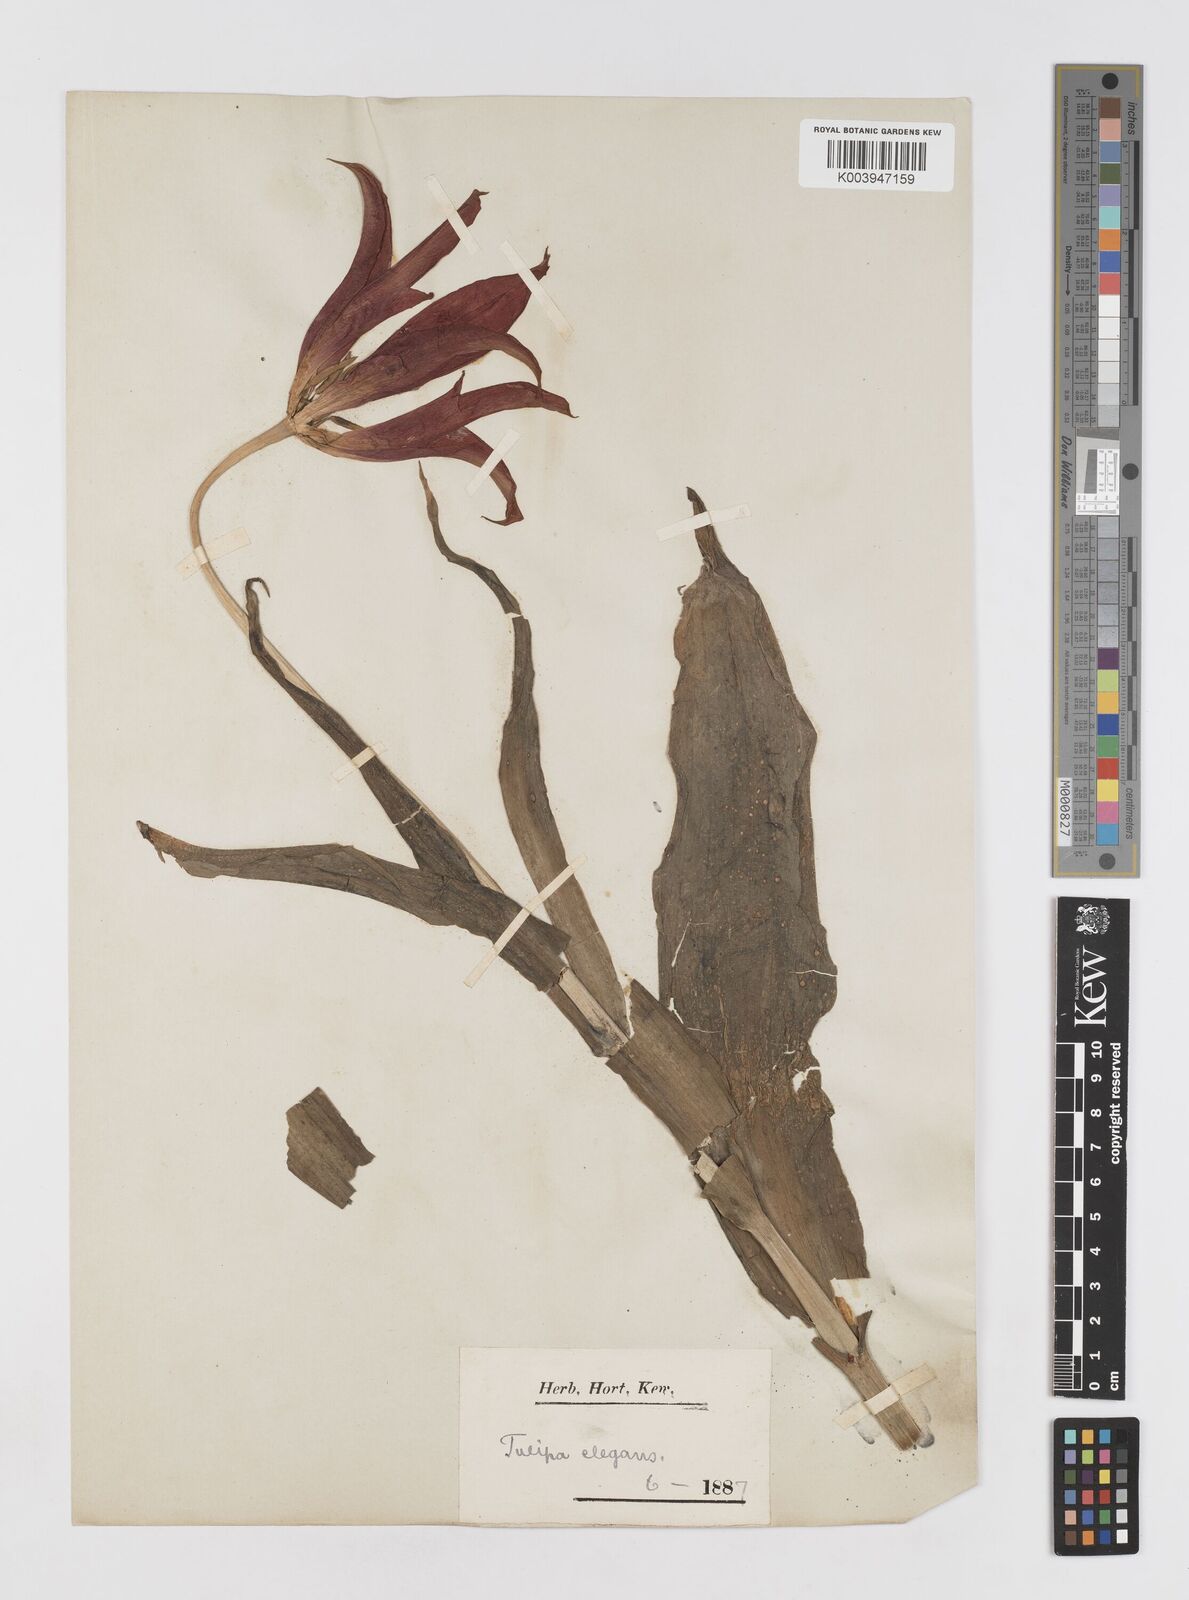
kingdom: Plantae
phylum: Tracheophyta
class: Liliopsida
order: Liliales
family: Liliaceae
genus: Tulipa
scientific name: Tulipa gesneriana
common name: Garden tulip
